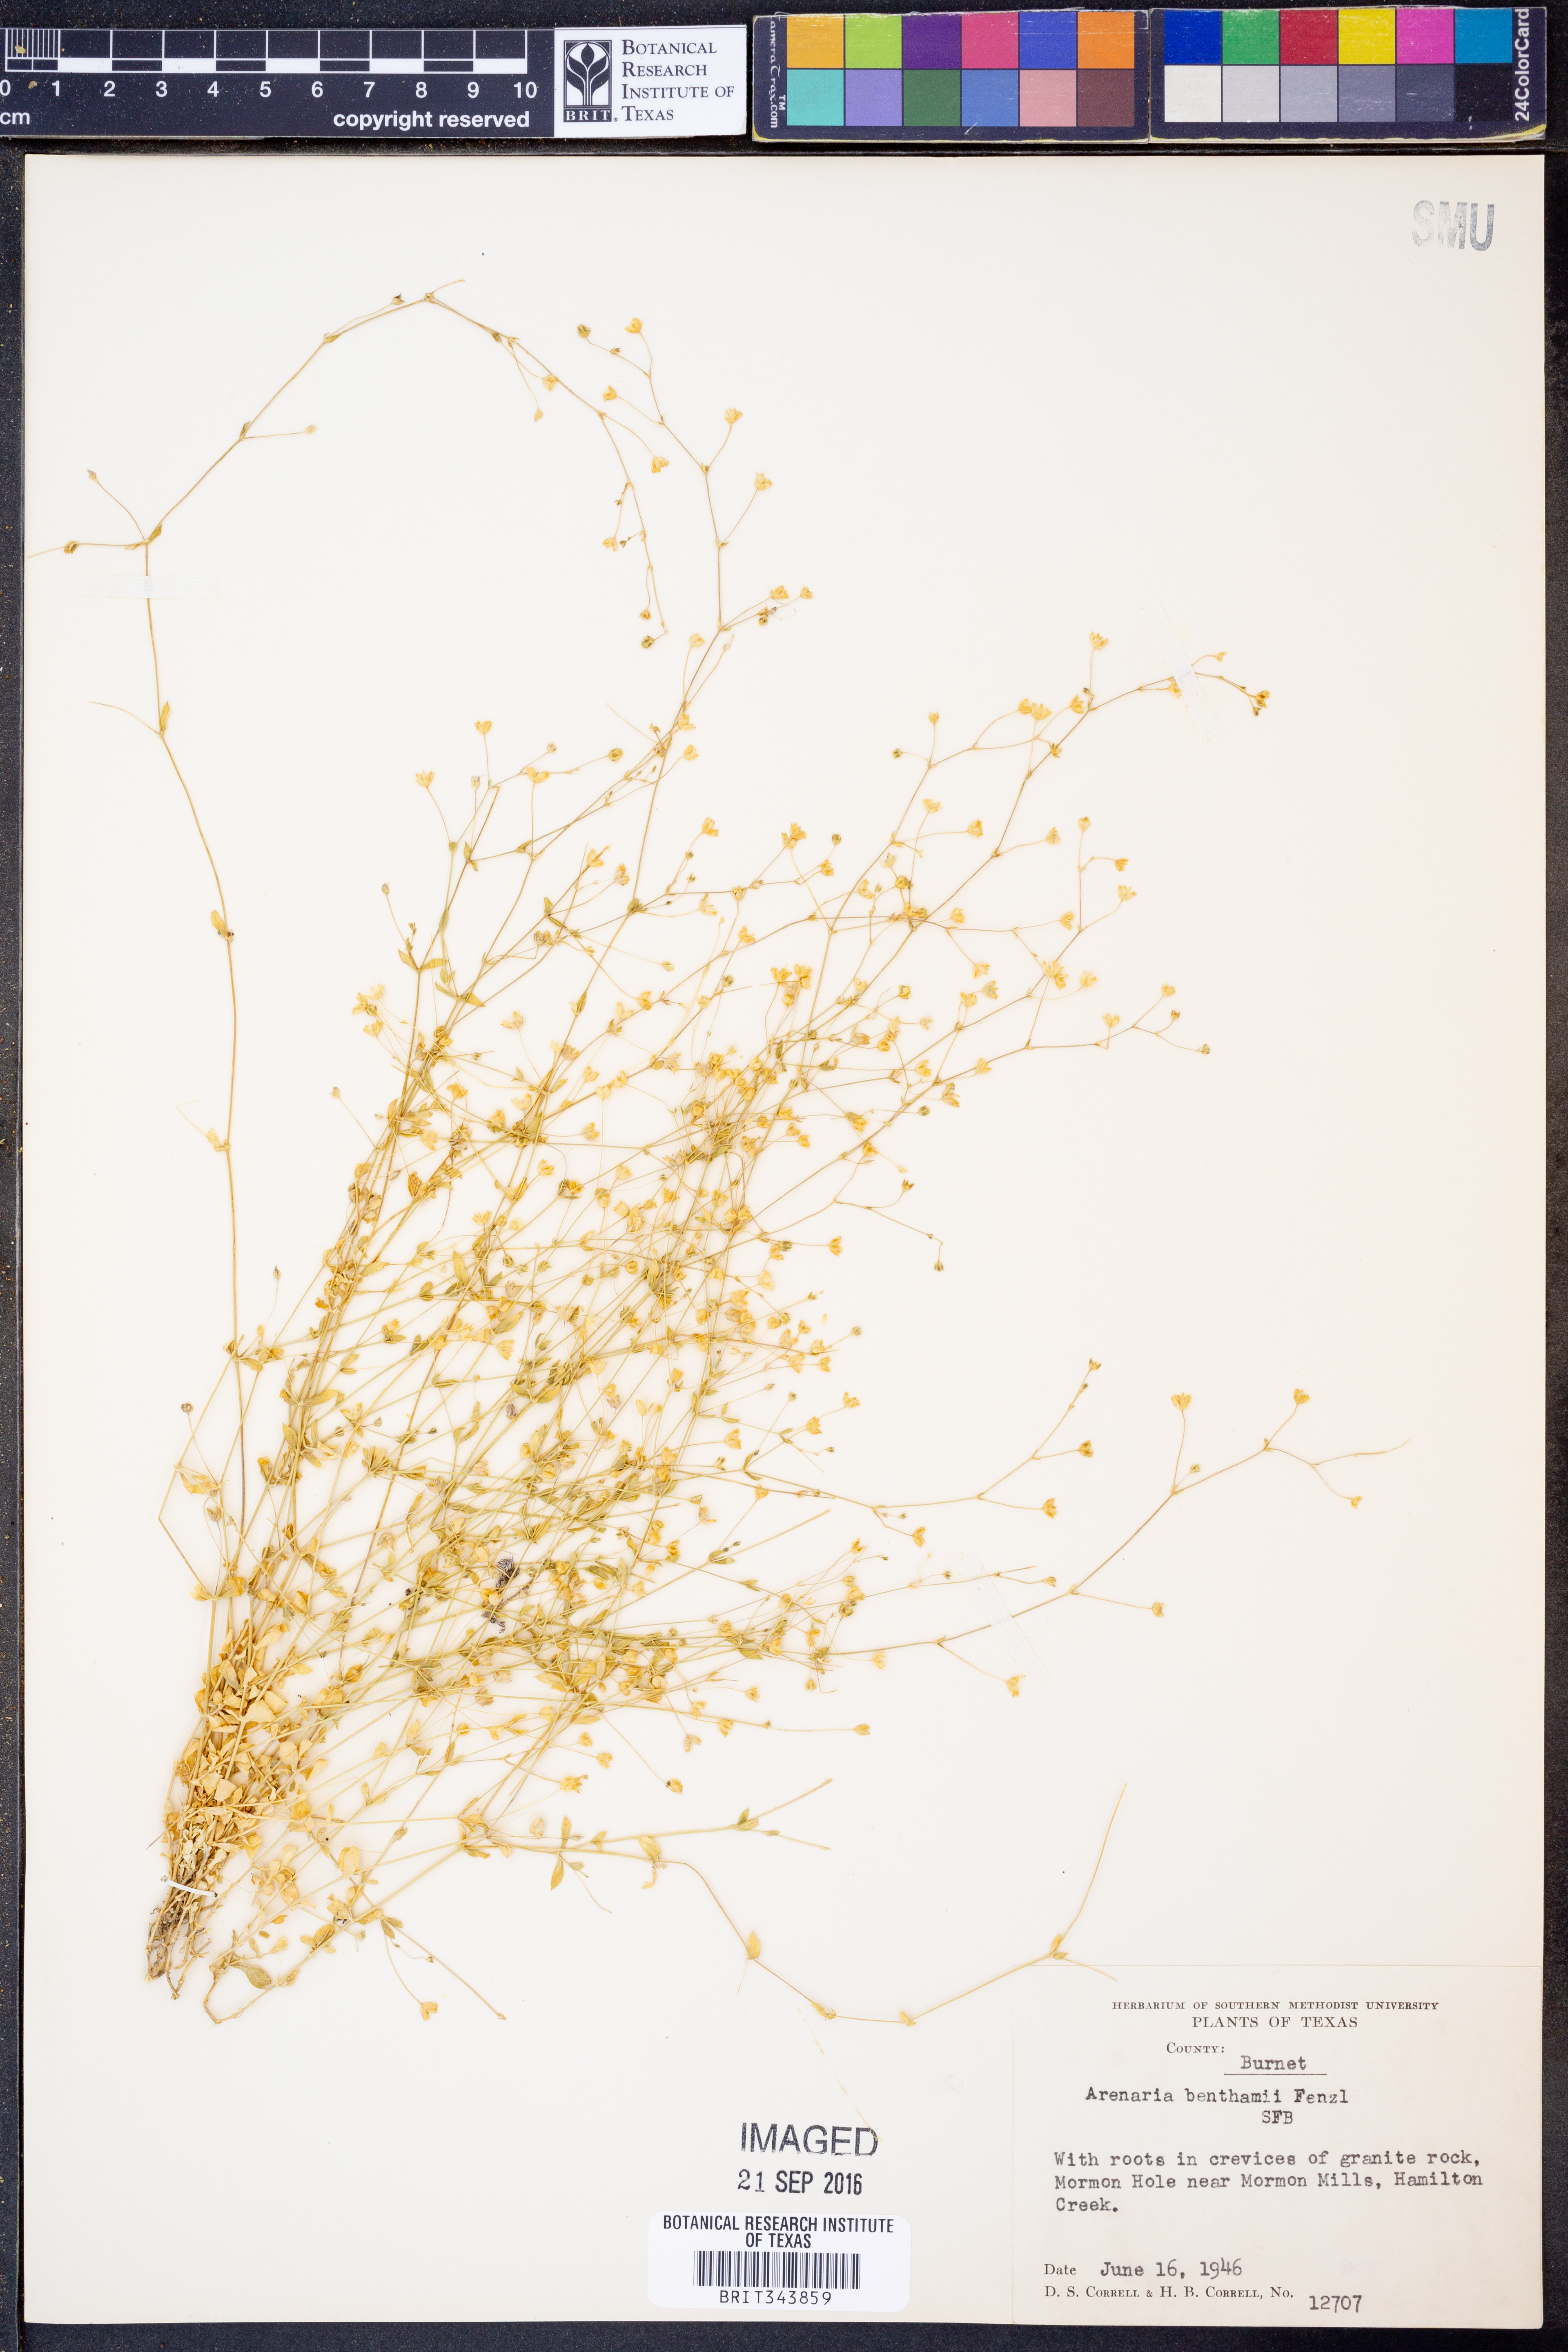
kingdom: Plantae
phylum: Tracheophyta
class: Magnoliopsida
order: Caryophyllales
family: Caryophyllaceae
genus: Arenaria
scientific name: Arenaria benthamii
